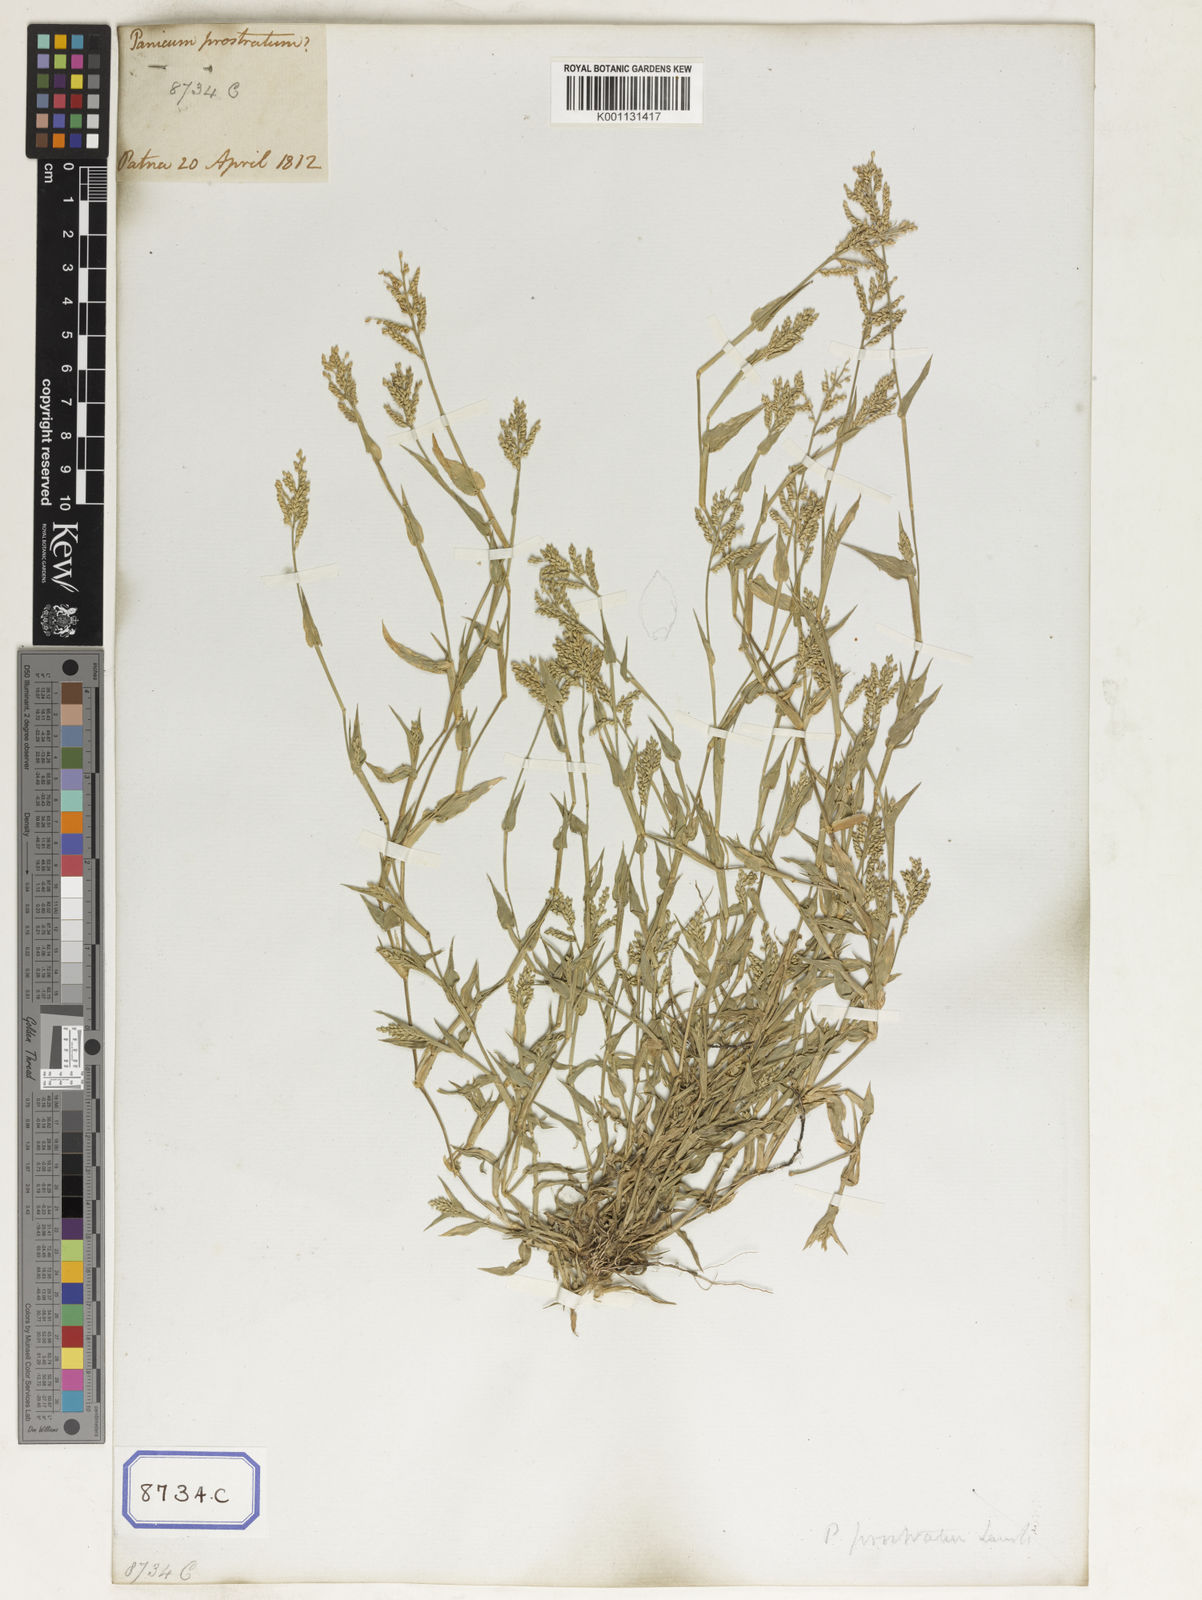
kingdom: Plantae
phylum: Tracheophyta
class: Liliopsida
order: Poales
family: Poaceae
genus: Panicum
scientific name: Panicum
